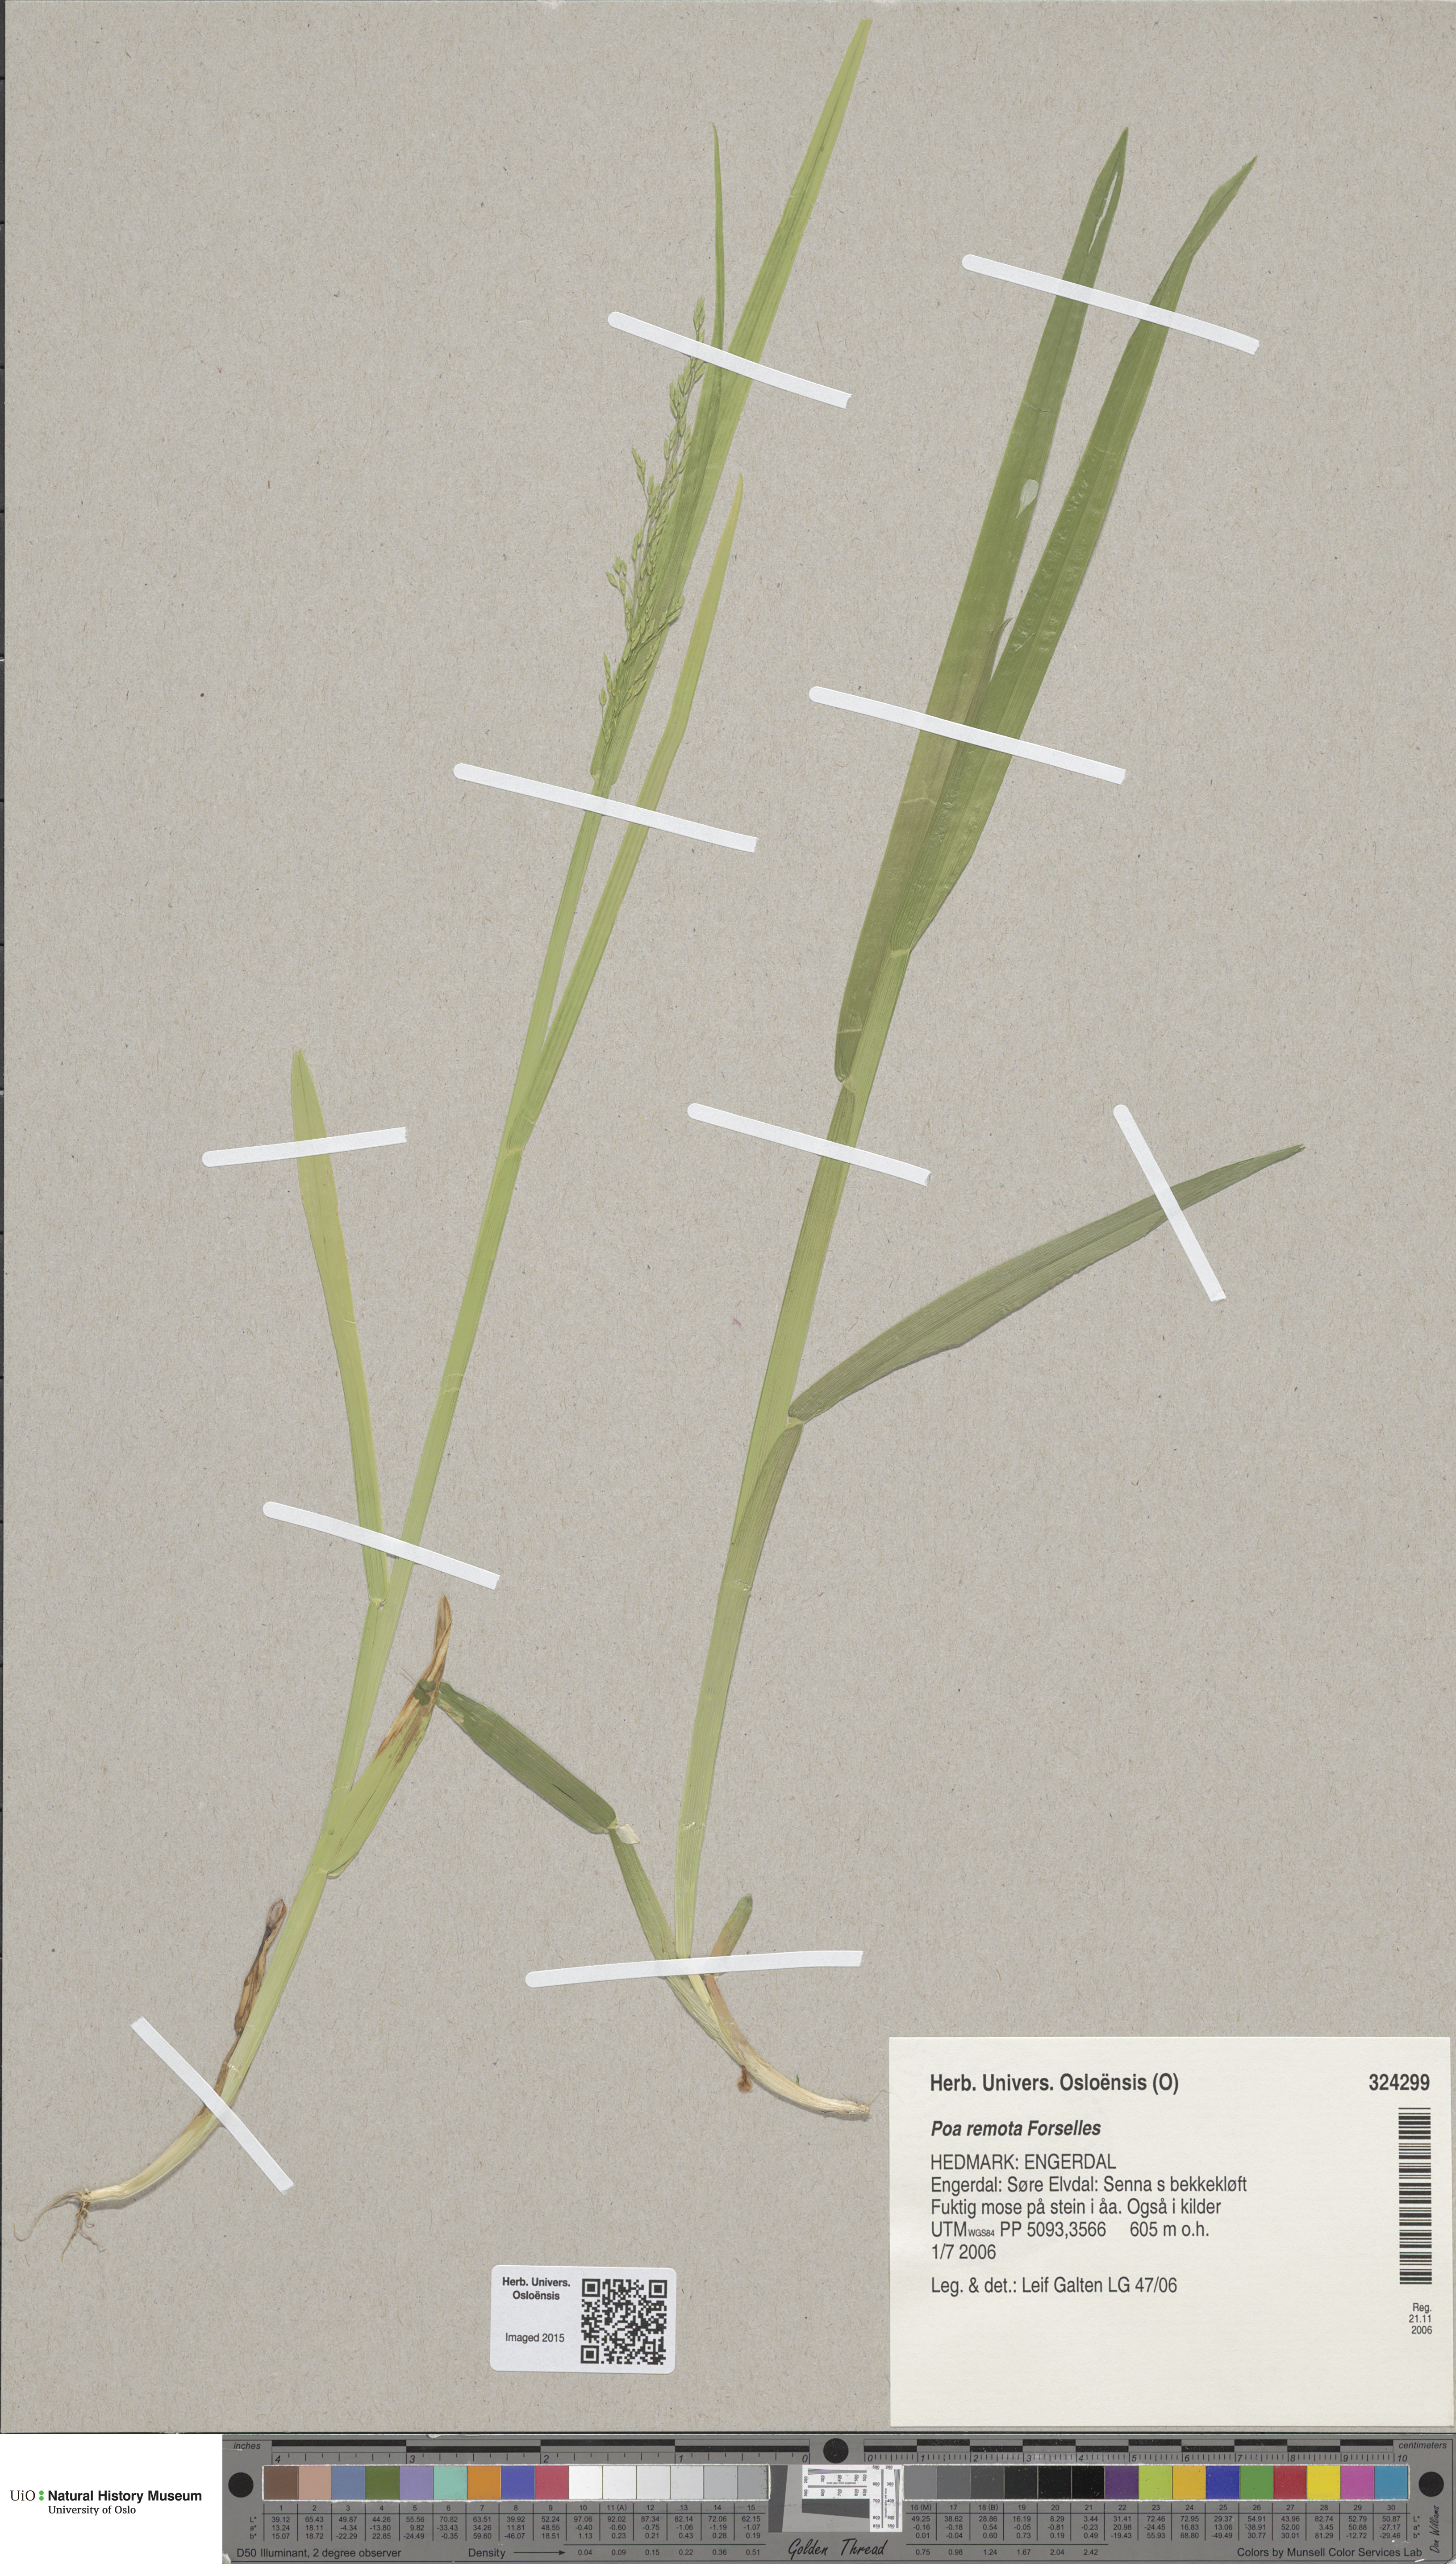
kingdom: Plantae
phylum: Tracheophyta
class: Liliopsida
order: Poales
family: Poaceae
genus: Poa
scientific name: Poa remota
